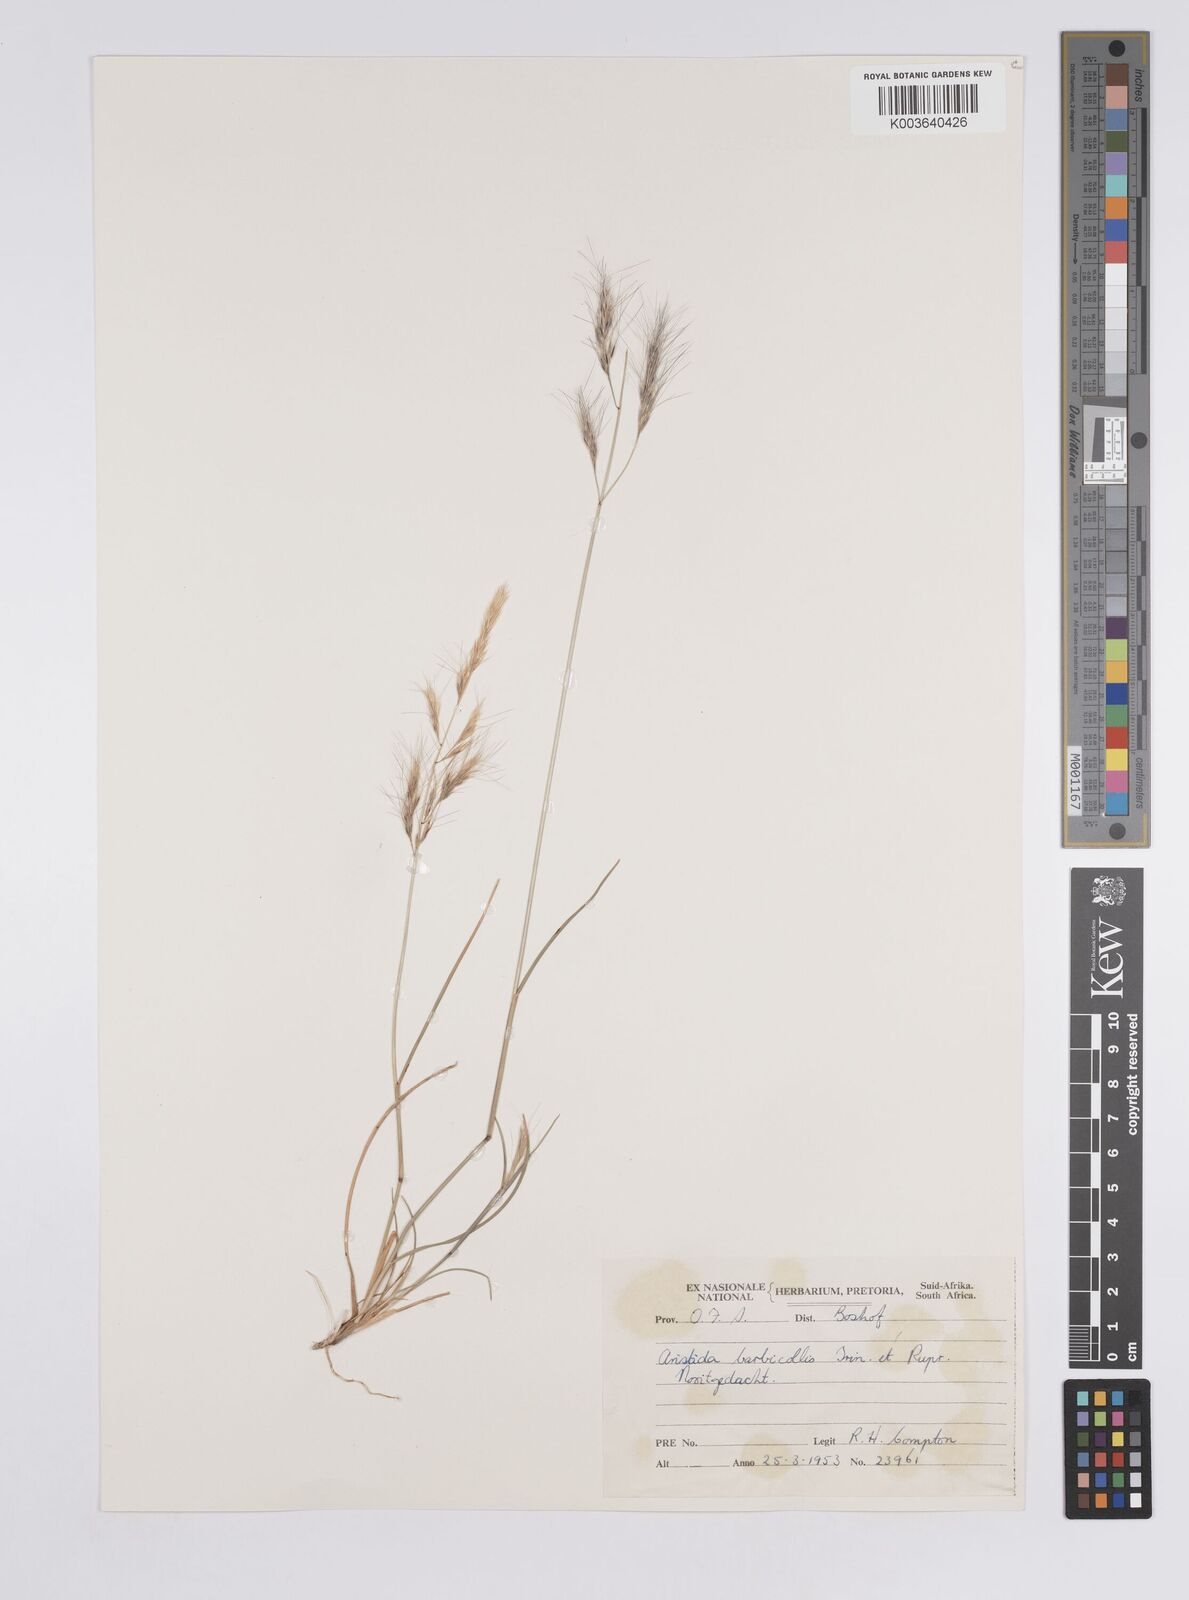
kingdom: Plantae
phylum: Tracheophyta
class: Liliopsida
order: Poales
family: Poaceae
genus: Aristida
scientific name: Aristida barbicollis
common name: Spreading prickle grass
